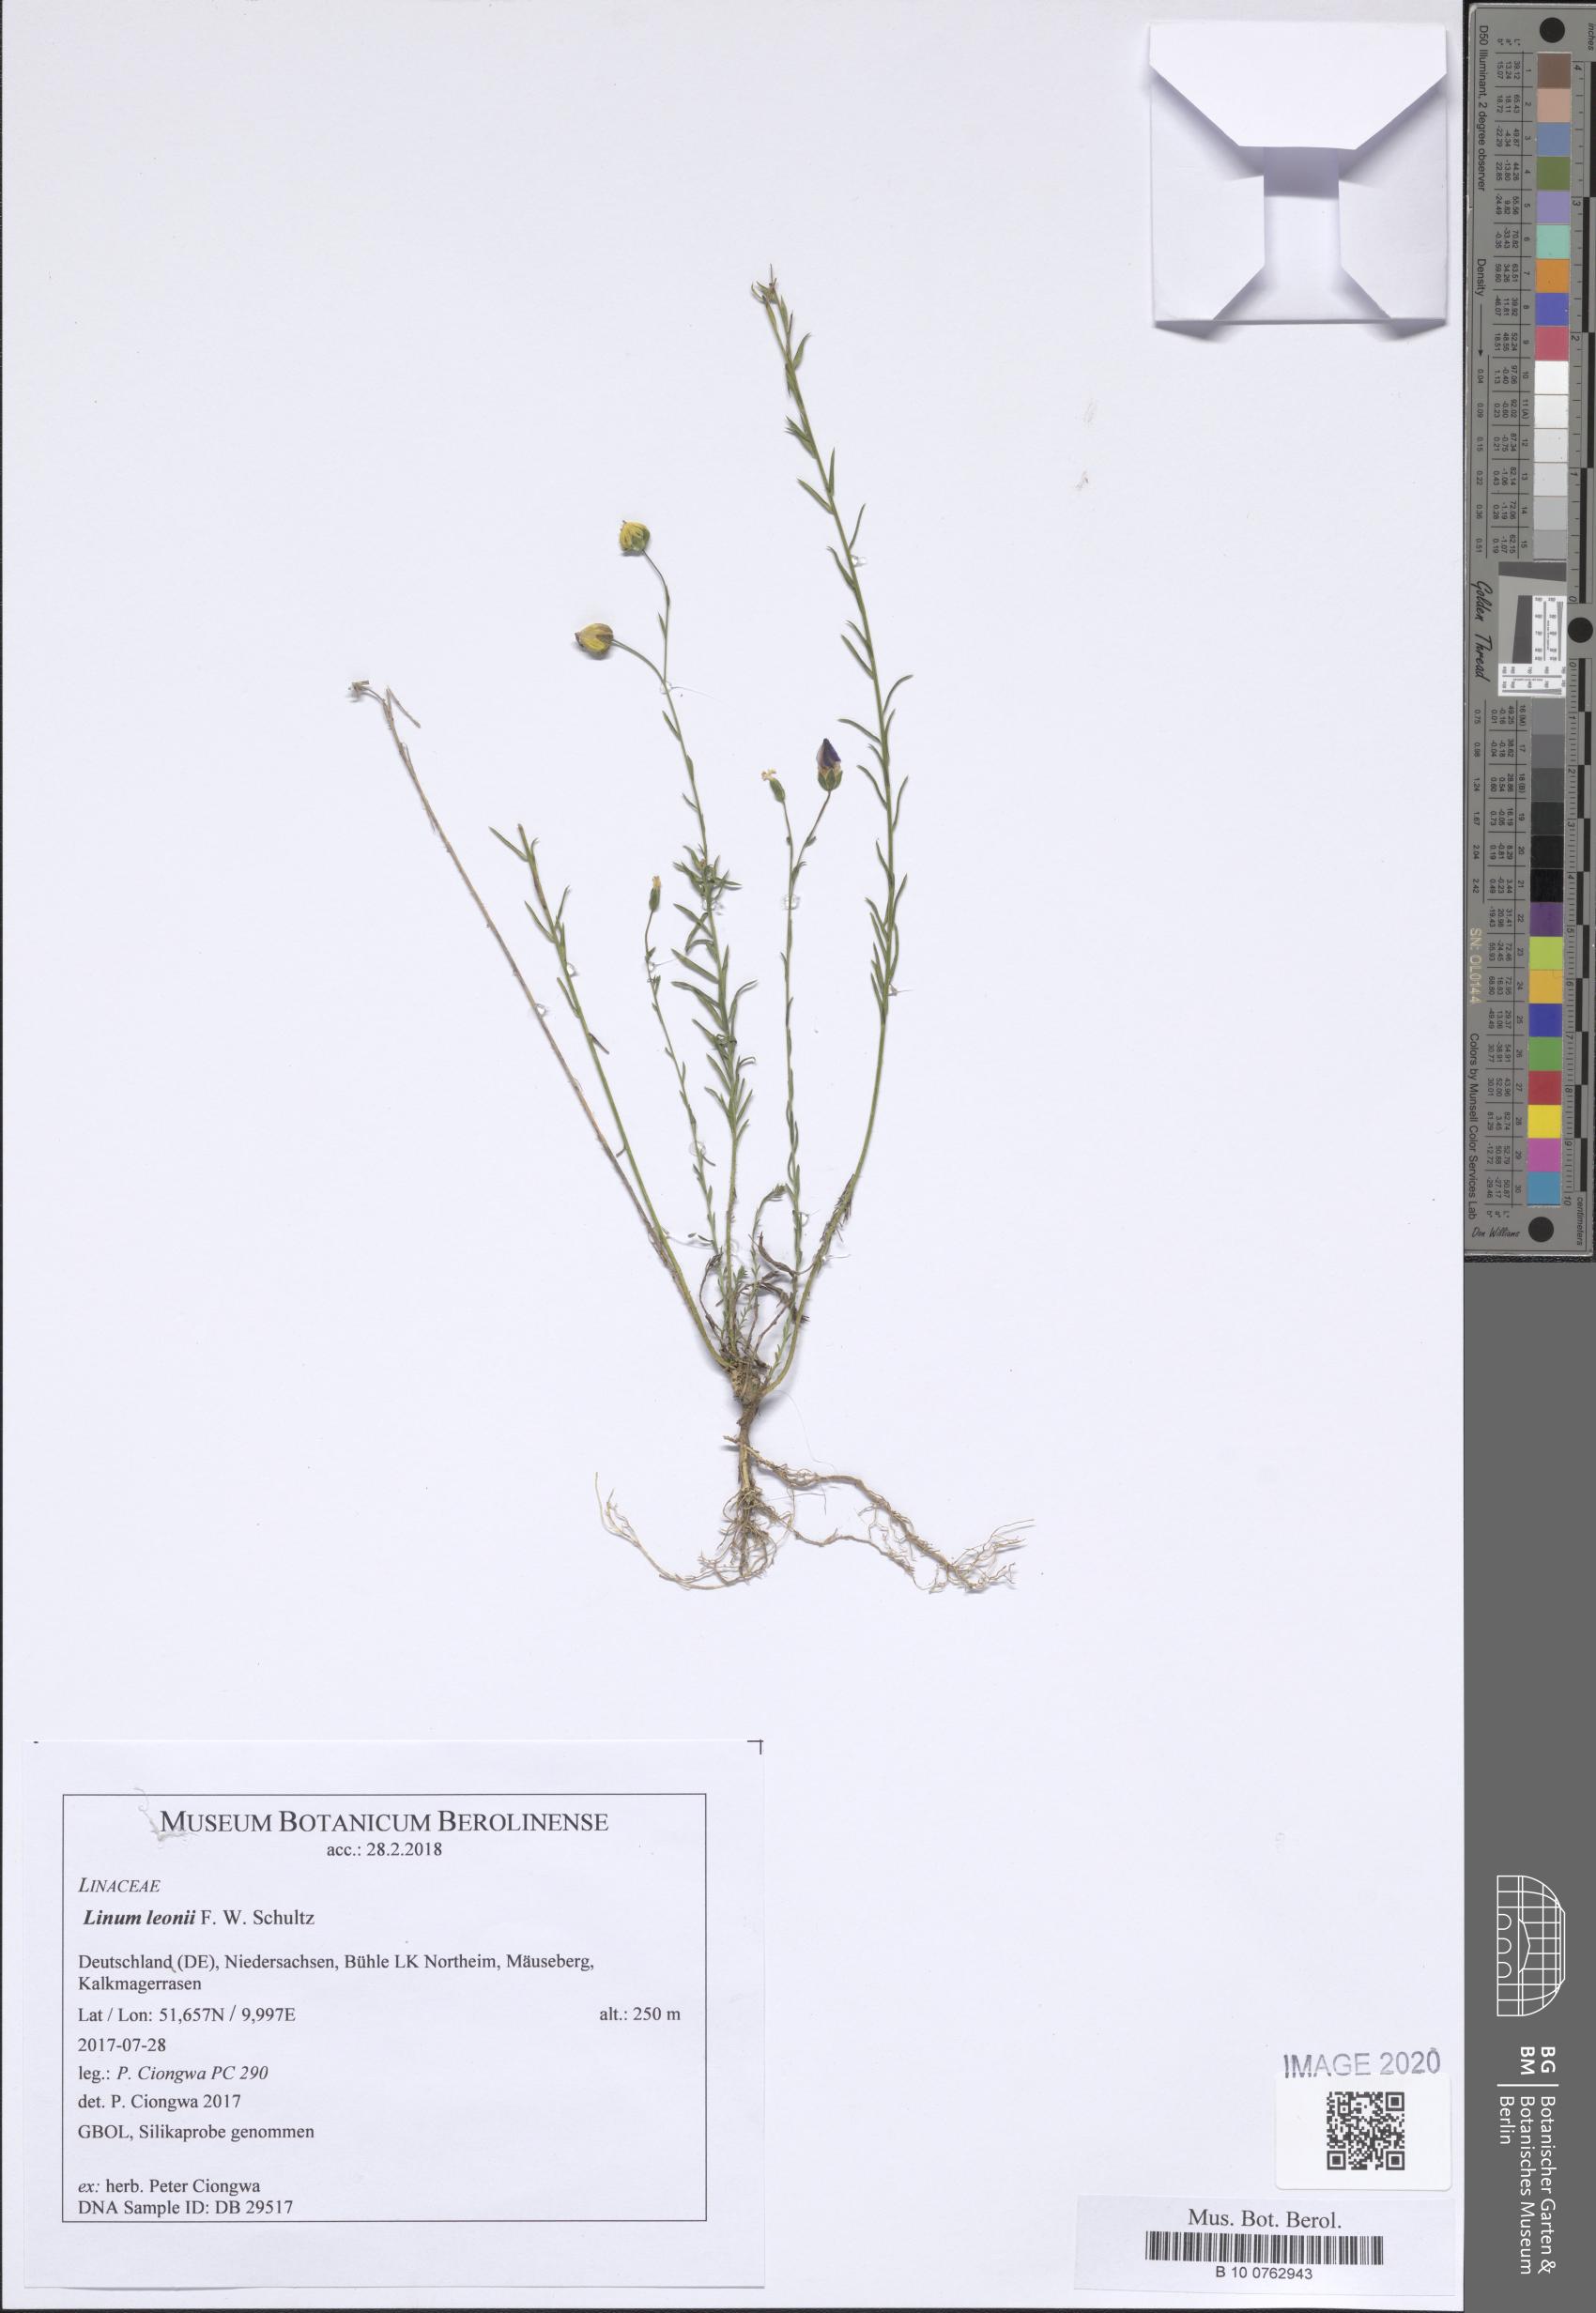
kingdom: Plantae
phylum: Tracheophyta
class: Magnoliopsida
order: Malpighiales
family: Linaceae
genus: Linum
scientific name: Linum leonii
